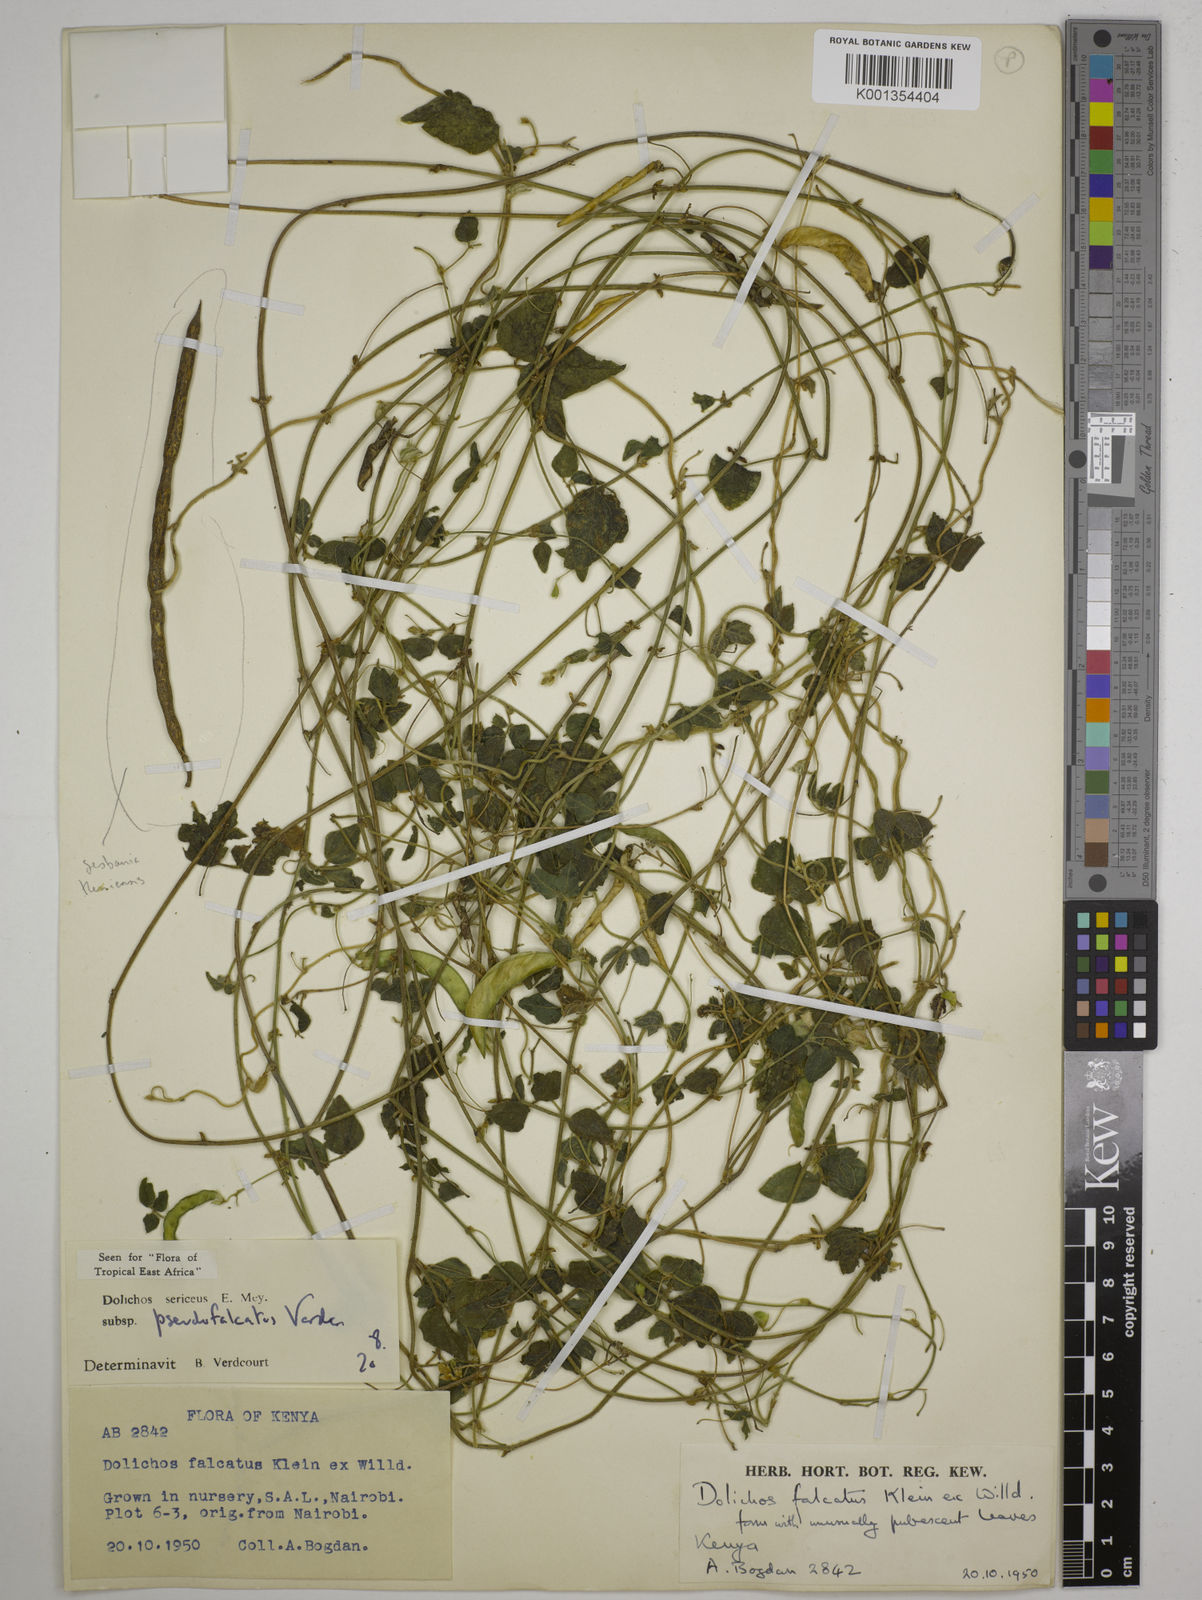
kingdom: Plantae
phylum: Tracheophyta
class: Magnoliopsida
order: Fabales
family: Fabaceae
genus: Dolichos
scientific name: Dolichos
